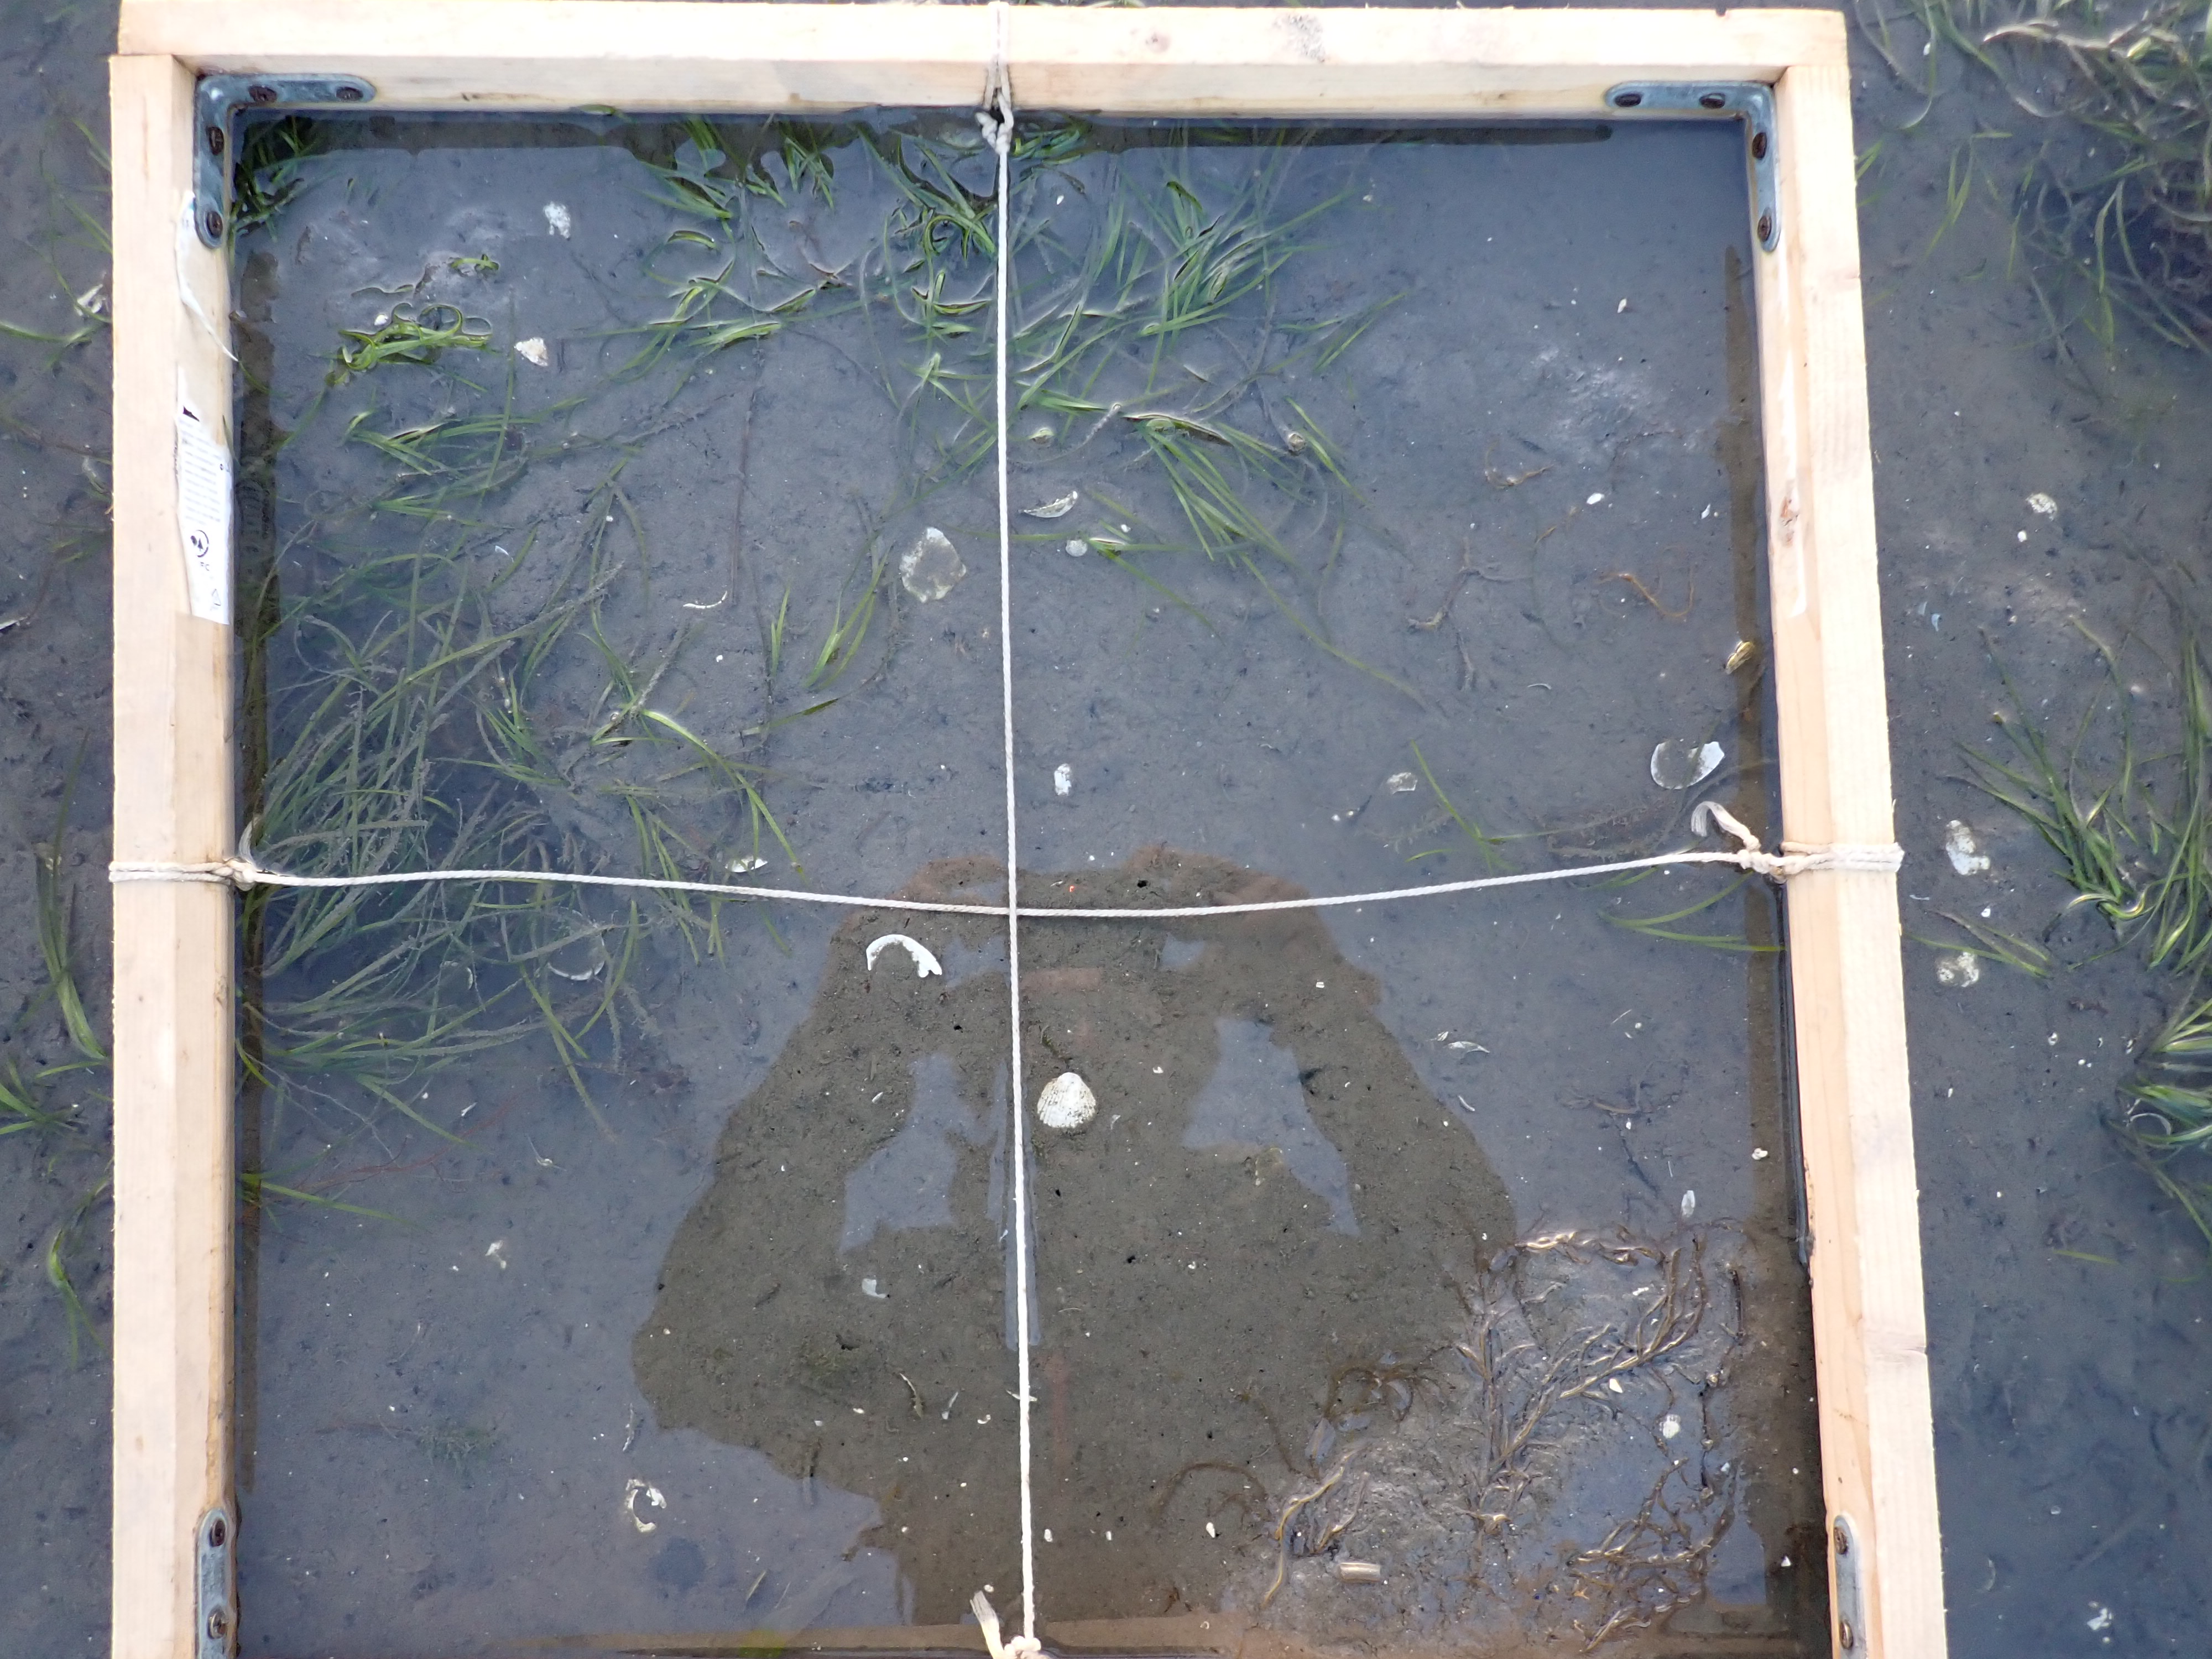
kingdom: Plantae
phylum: Tracheophyta
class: Liliopsida
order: Alismatales
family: Zosteraceae
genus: Zostera
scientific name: Zostera noltii
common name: Dwarf eelgrass
